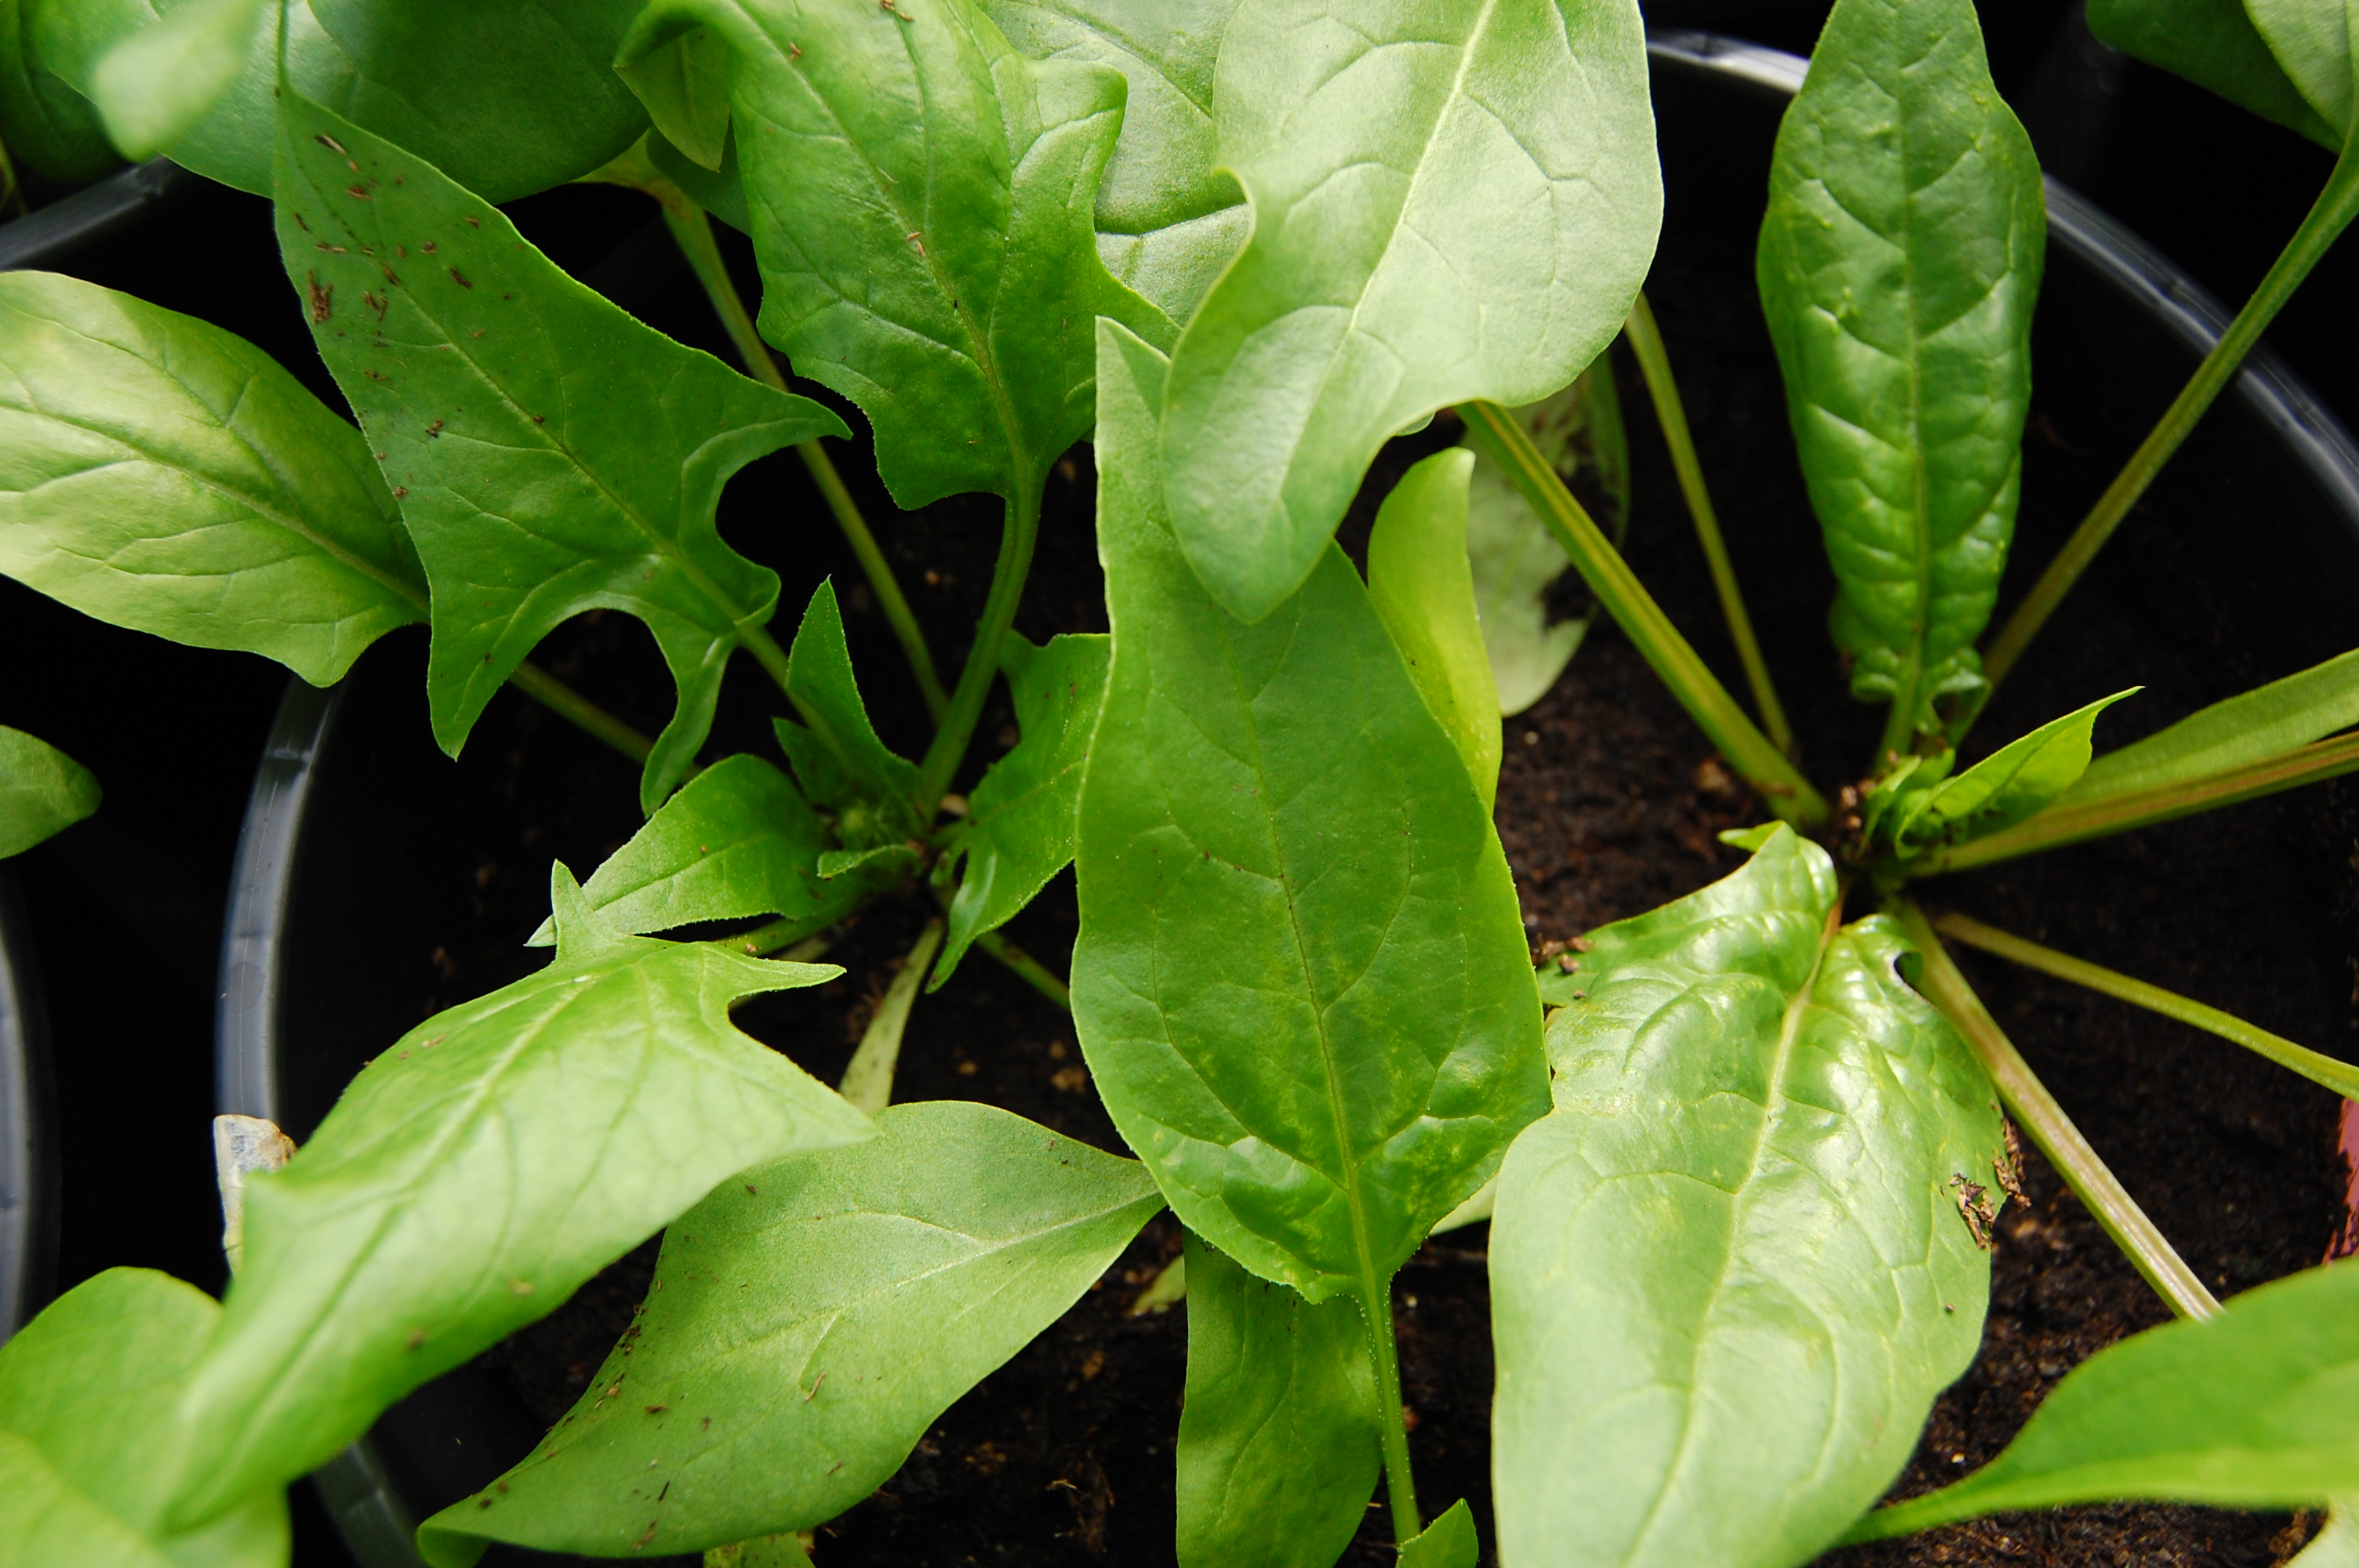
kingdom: Plantae
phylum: Tracheophyta
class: Magnoliopsida
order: Caryophyllales
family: Amaranthaceae
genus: Spinacia
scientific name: Spinacia oleracea
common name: Spinach
